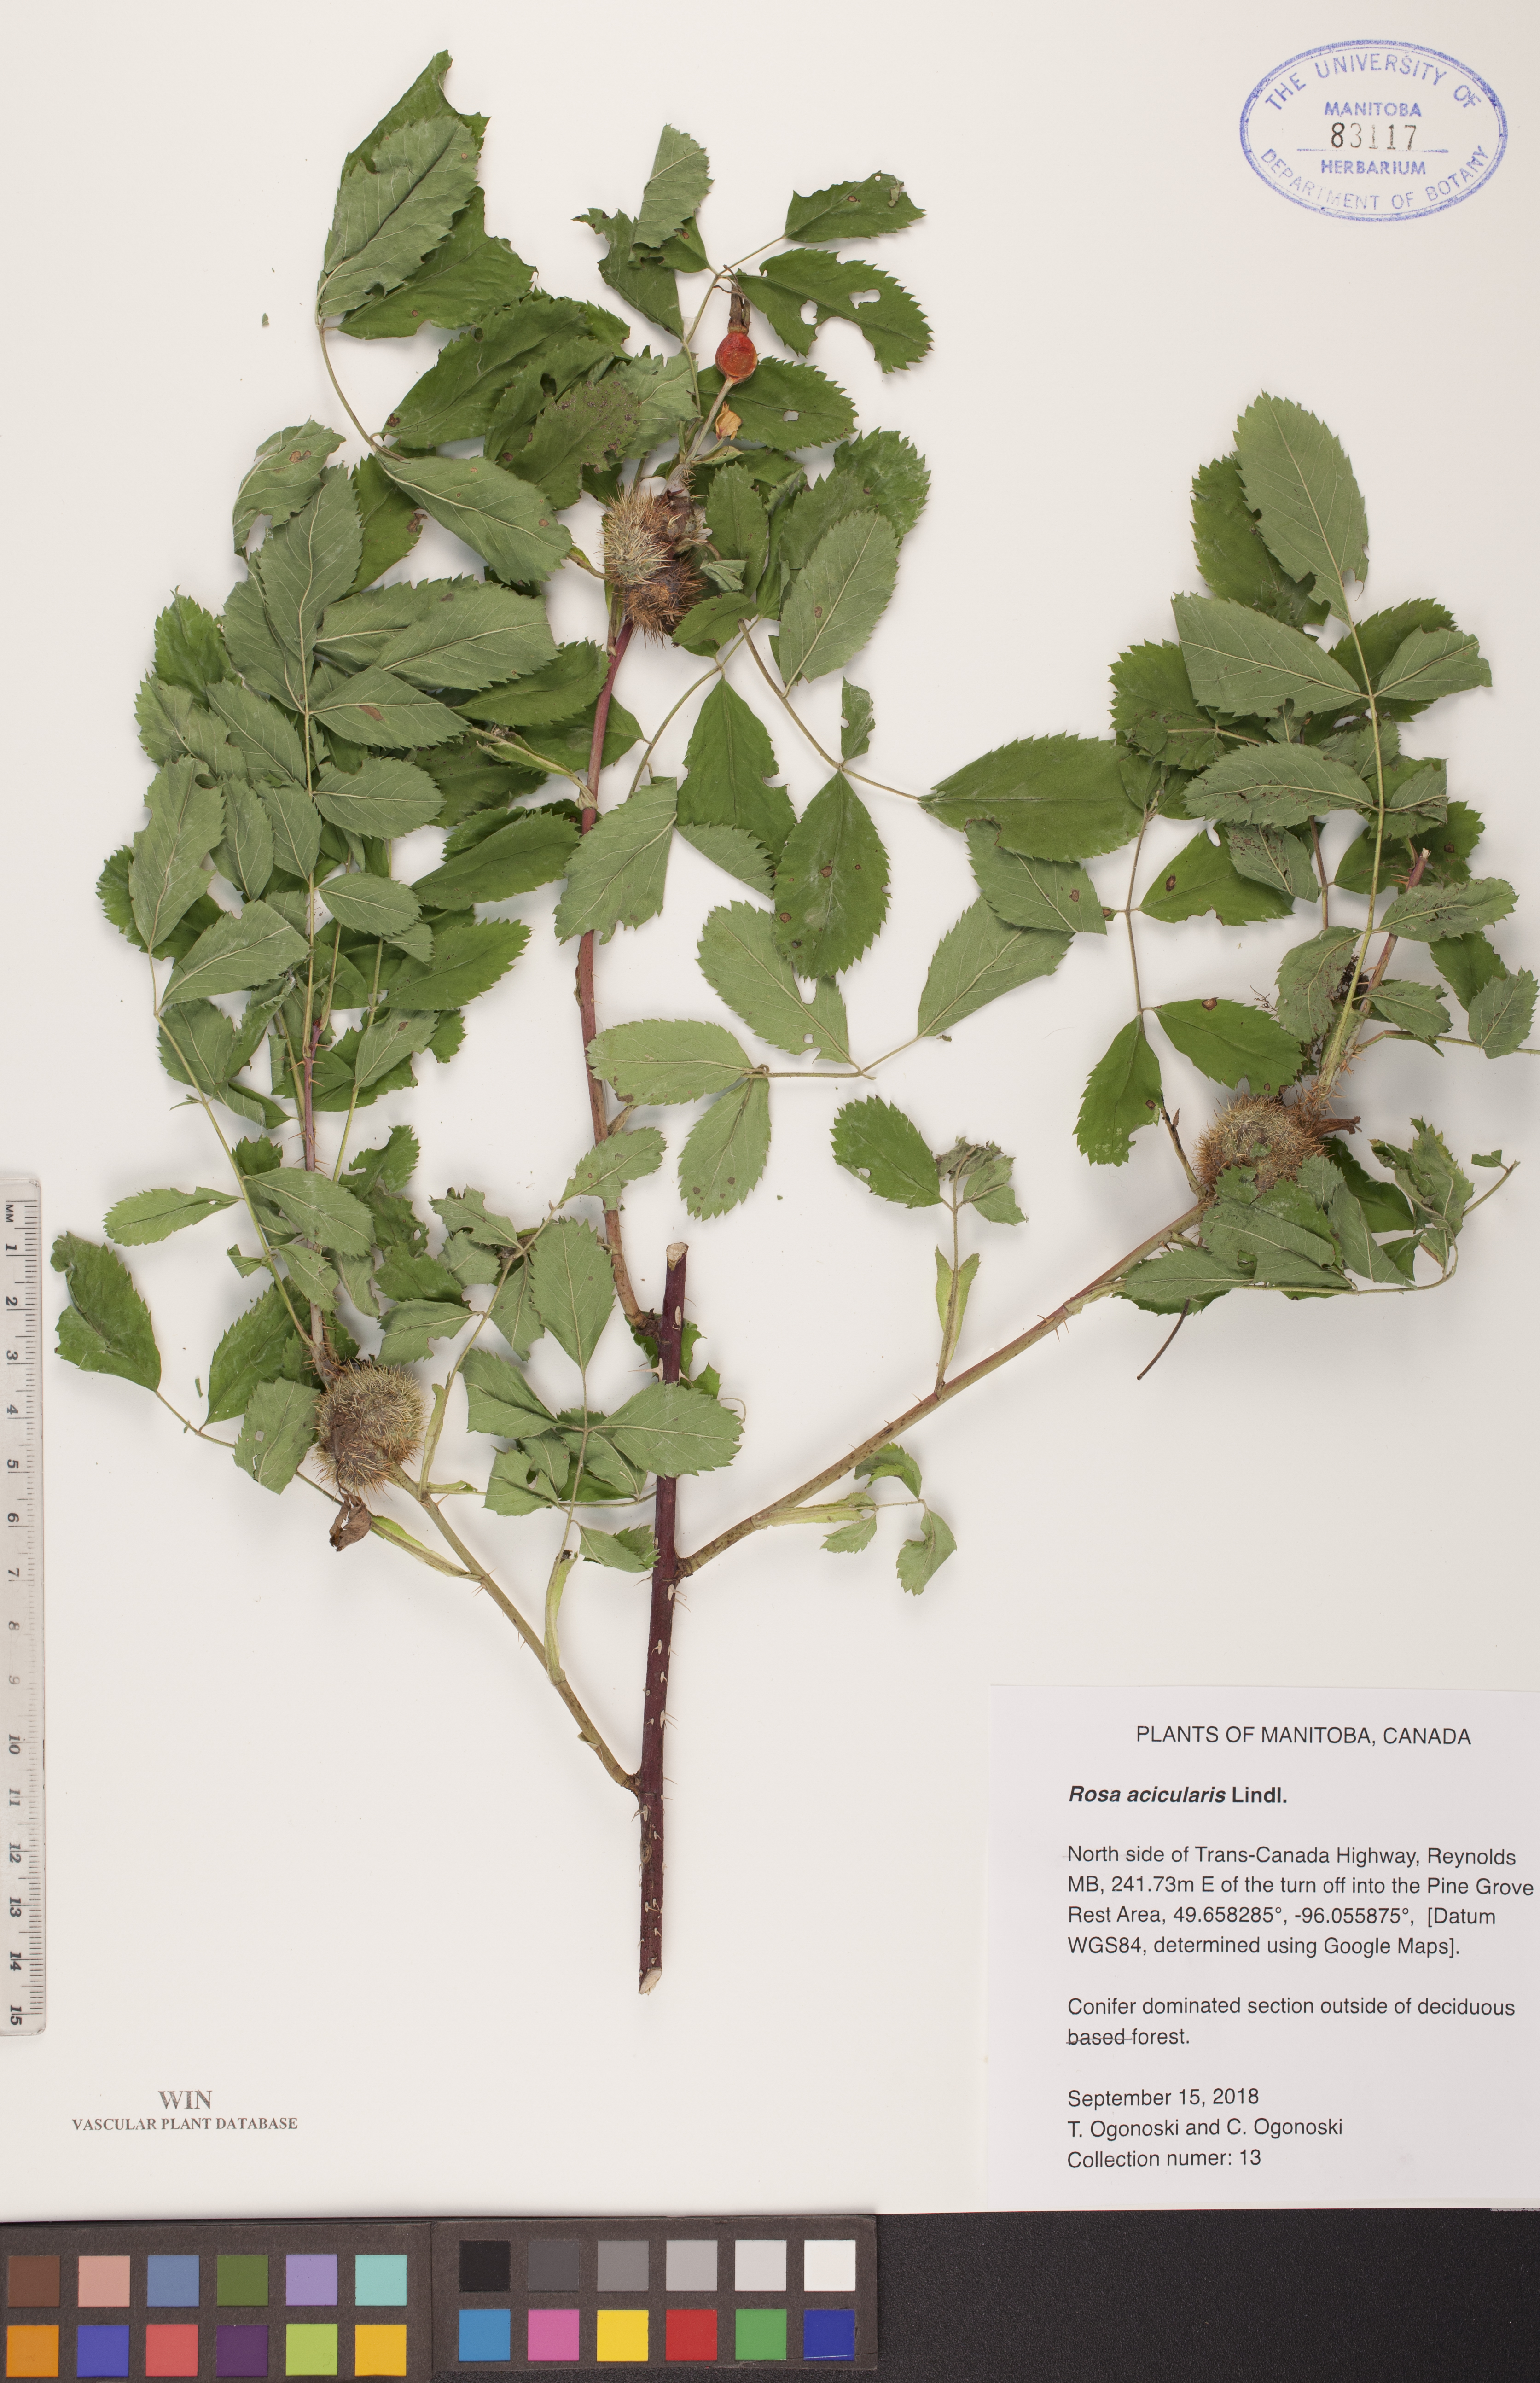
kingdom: Plantae
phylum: Tracheophyta
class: Magnoliopsida
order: Rosales
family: Rosaceae
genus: Rosa
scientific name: Rosa acicularis
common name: Prickly rose
